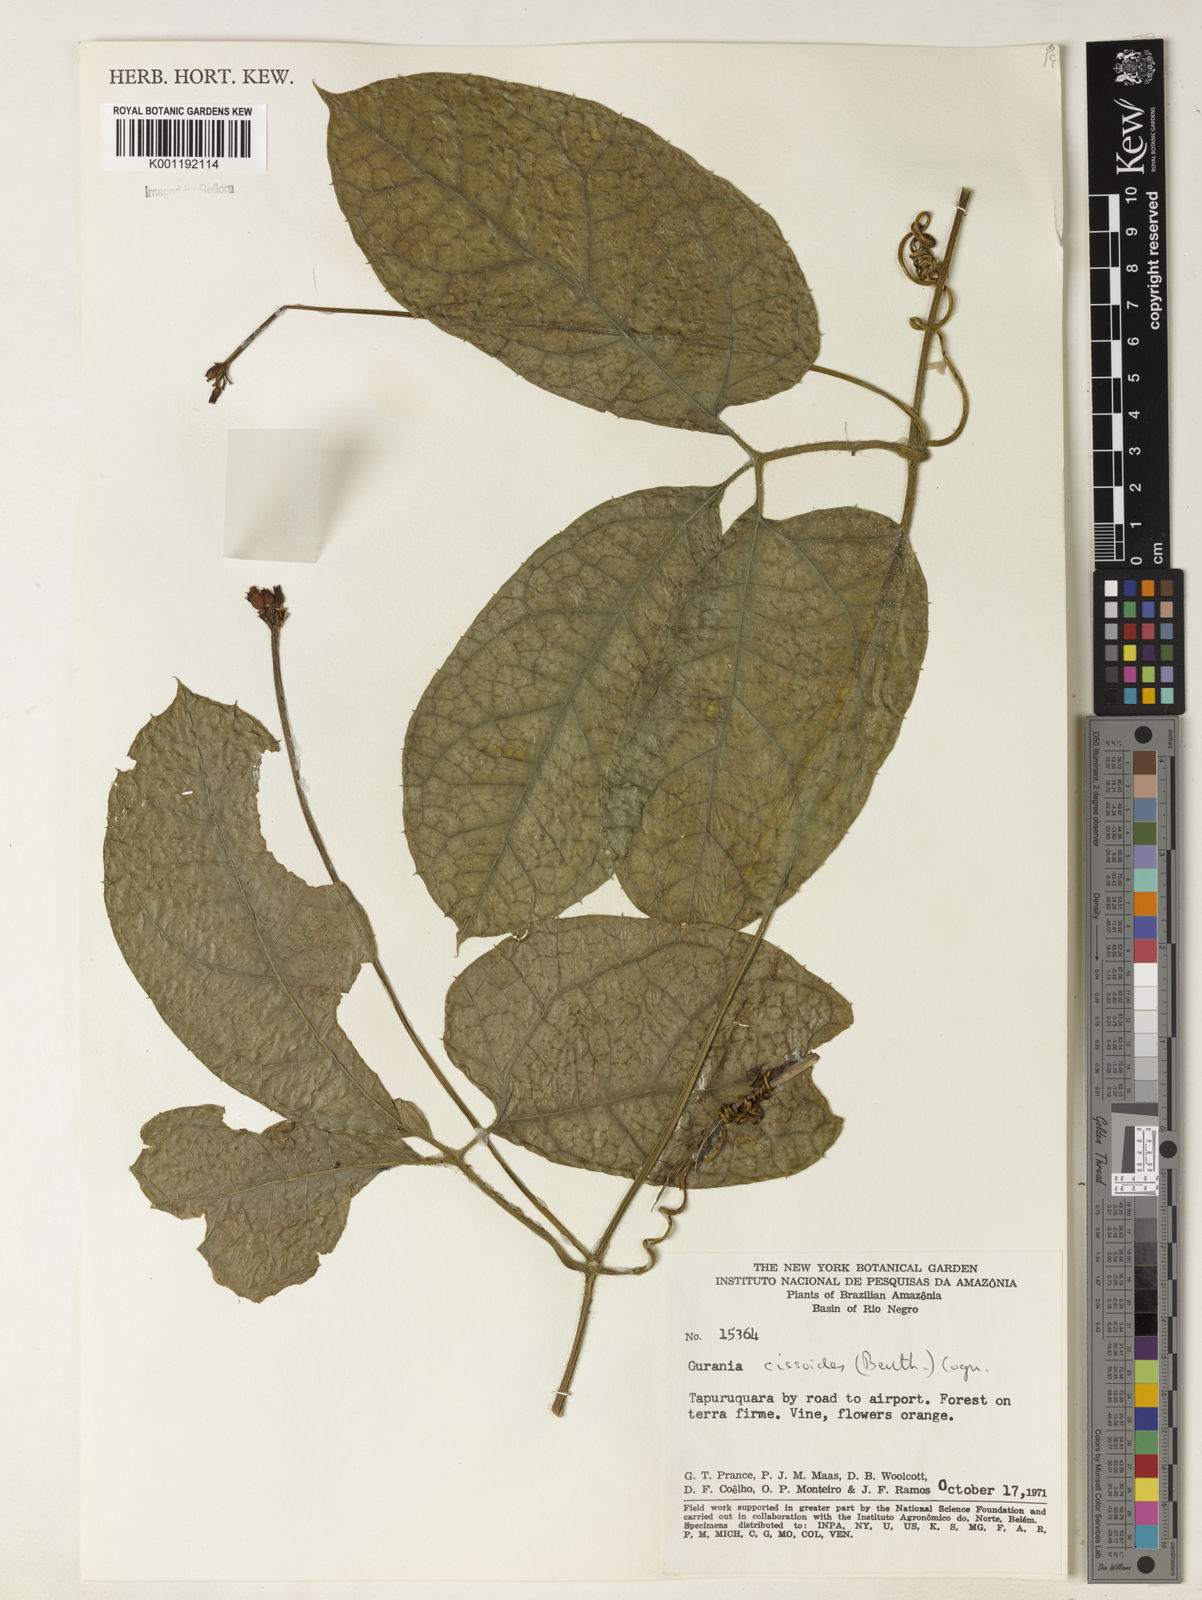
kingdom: Plantae
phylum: Tracheophyta
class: Magnoliopsida
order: Cucurbitales
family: Cucurbitaceae
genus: Gurania
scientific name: Gurania bignoniacea
